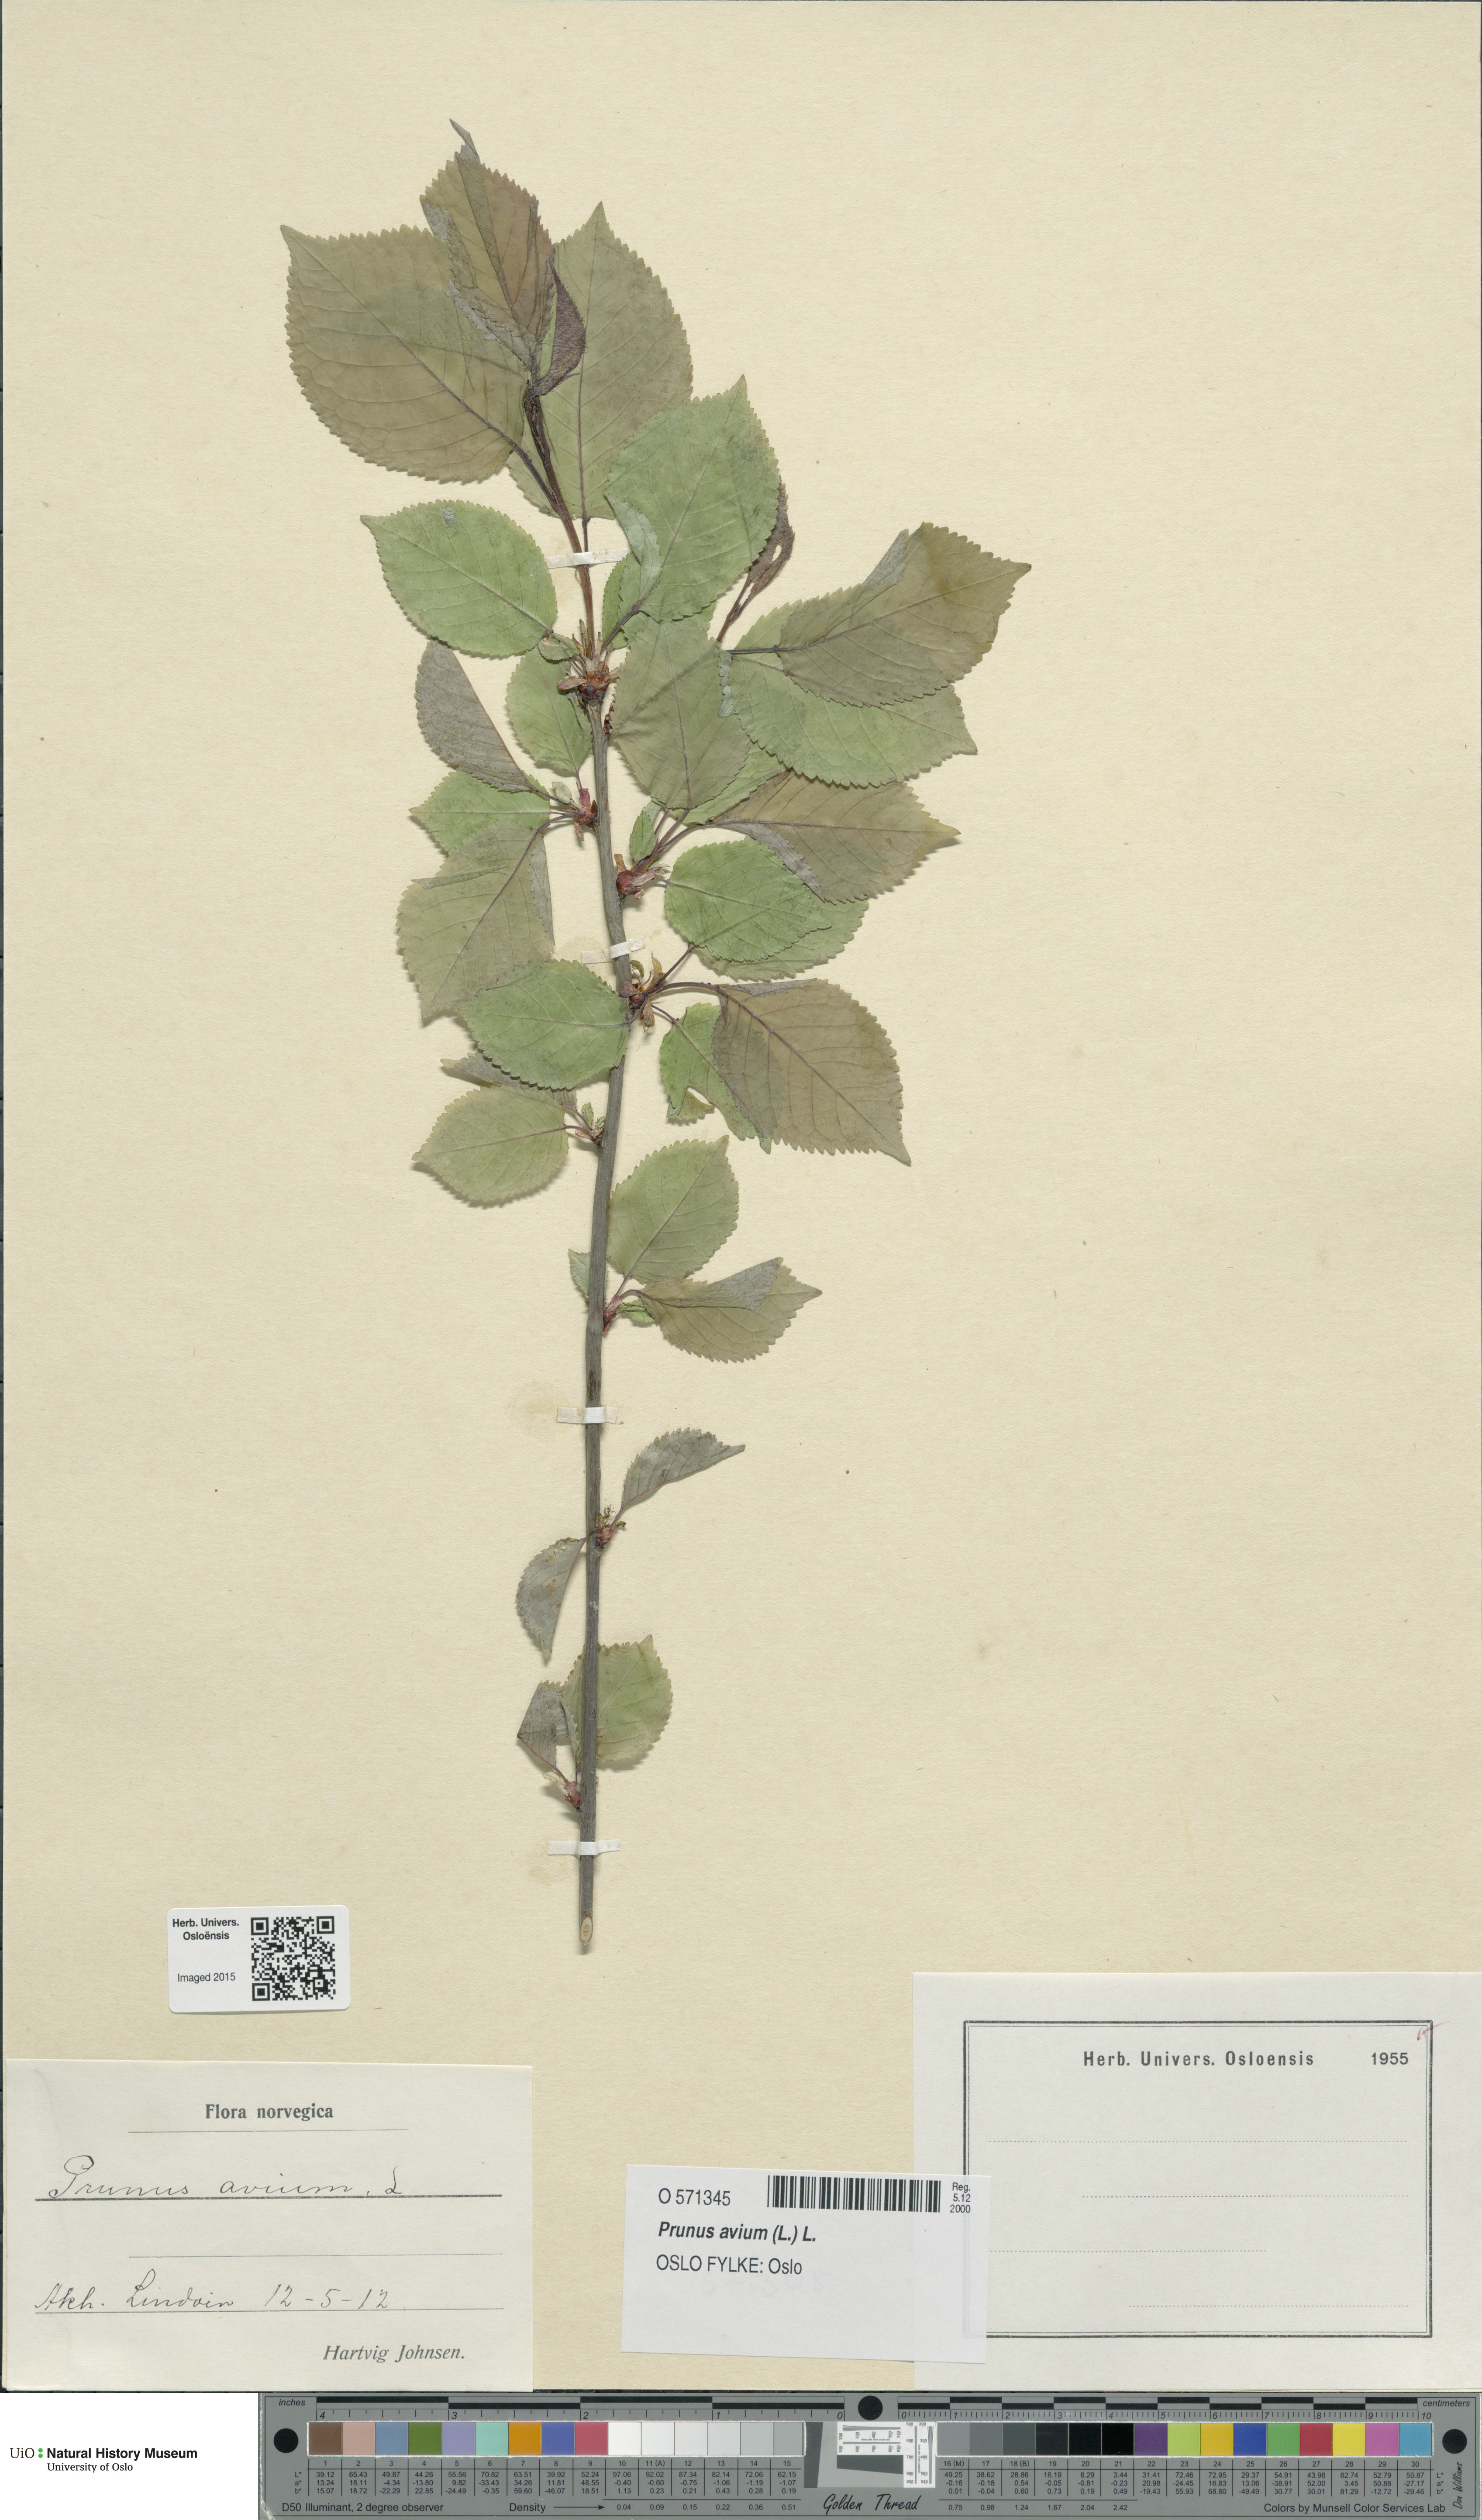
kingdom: Plantae
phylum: Tracheophyta
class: Magnoliopsida
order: Rosales
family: Rosaceae
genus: Prunus
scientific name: Prunus avium
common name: Sweet cherry
